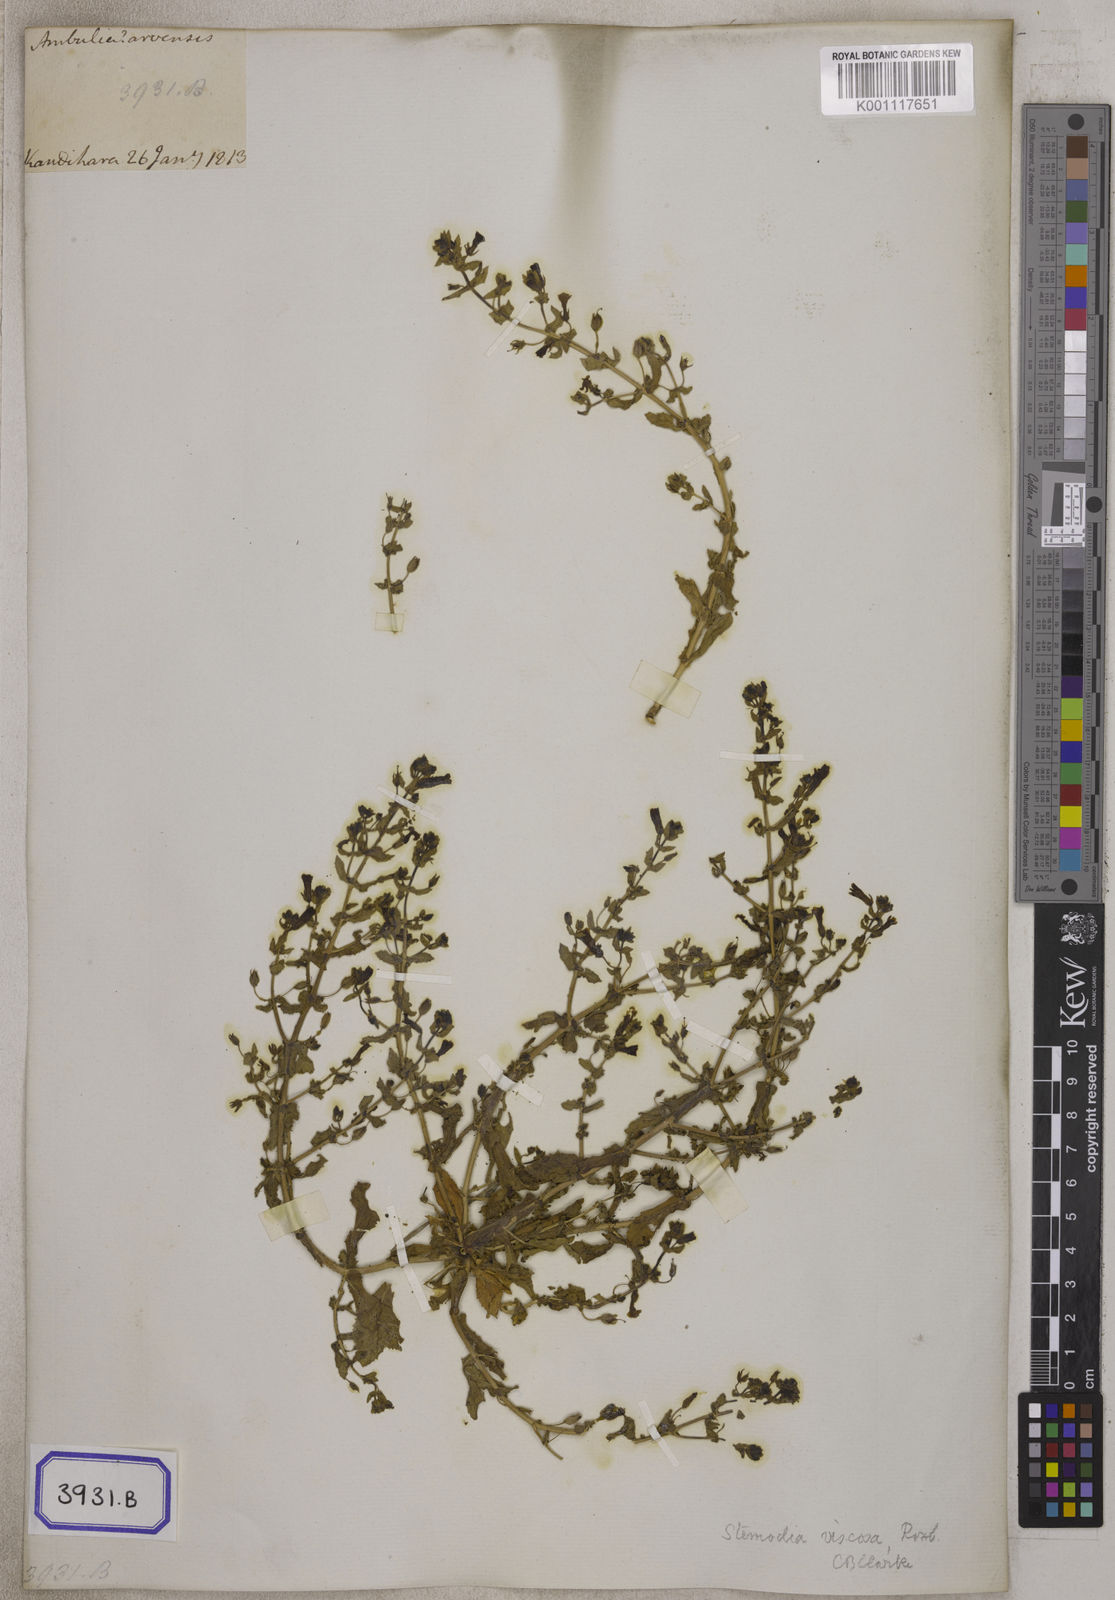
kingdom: Plantae
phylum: Tracheophyta
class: Magnoliopsida
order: Lamiales
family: Plantaginaceae
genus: Stemodia
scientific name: Stemodia
